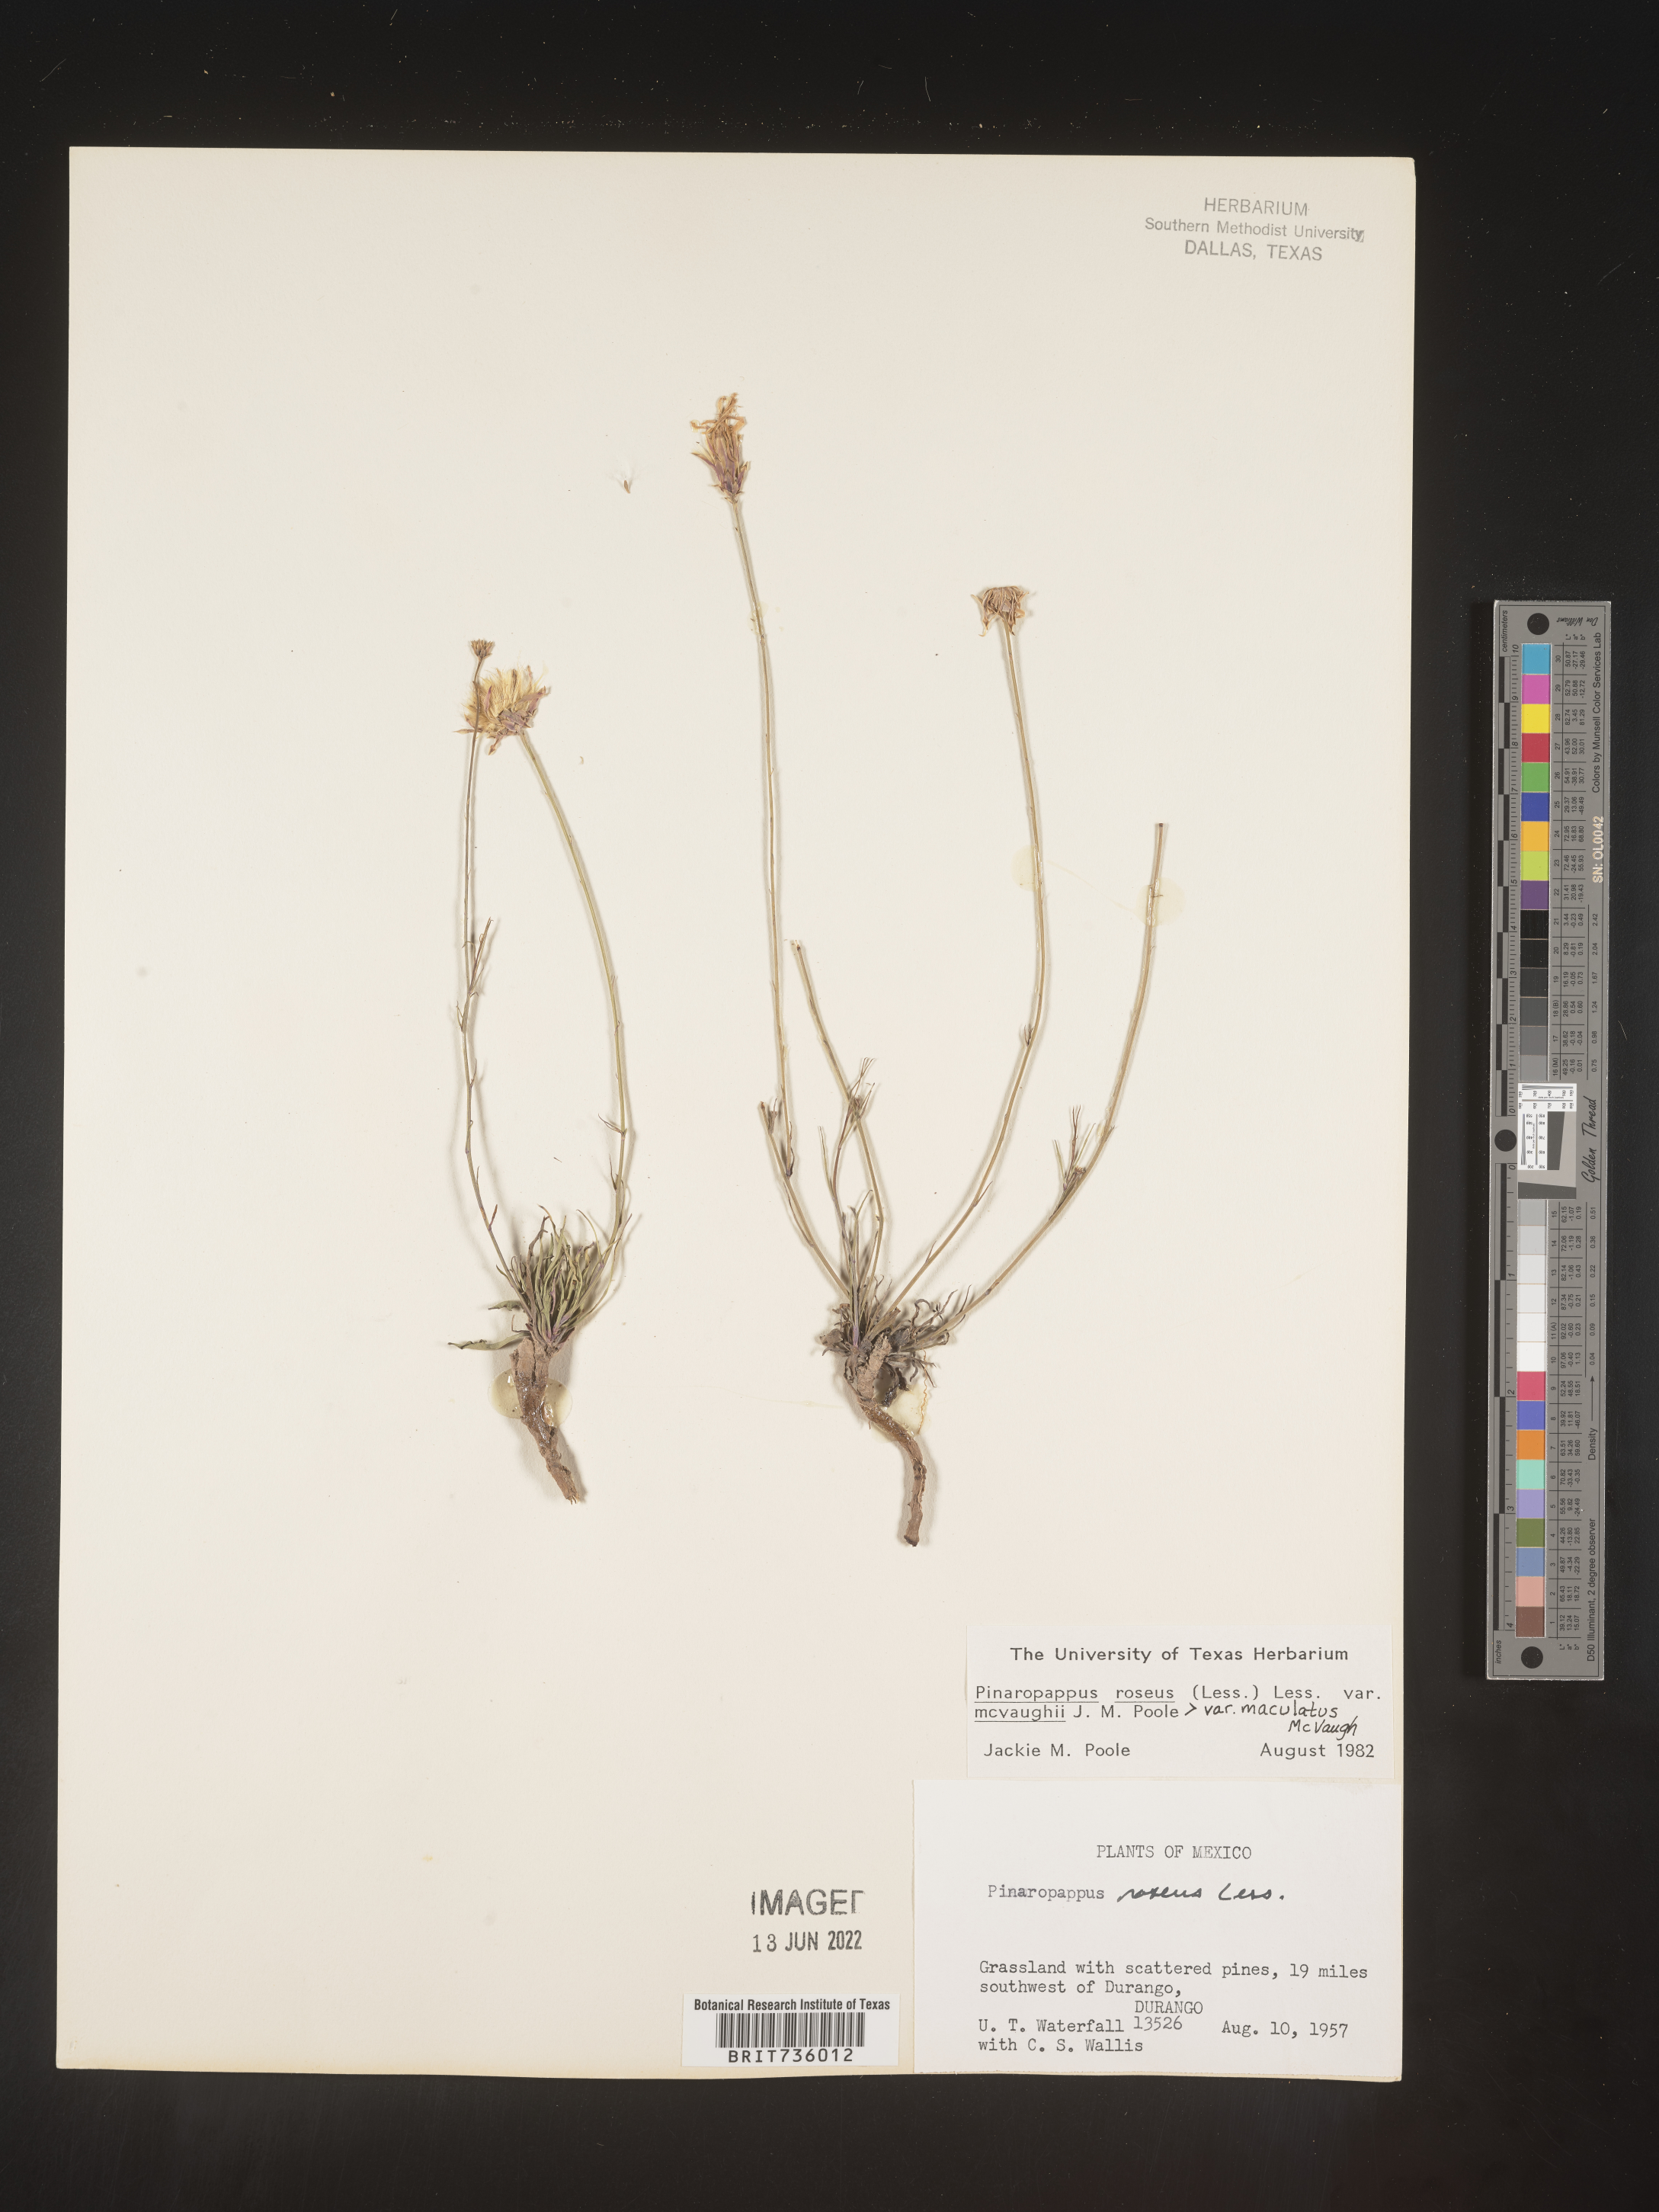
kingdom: Plantae
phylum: Tracheophyta
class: Magnoliopsida
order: Asterales
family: Asteraceae
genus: Pinaropappus
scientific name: Pinaropappus
